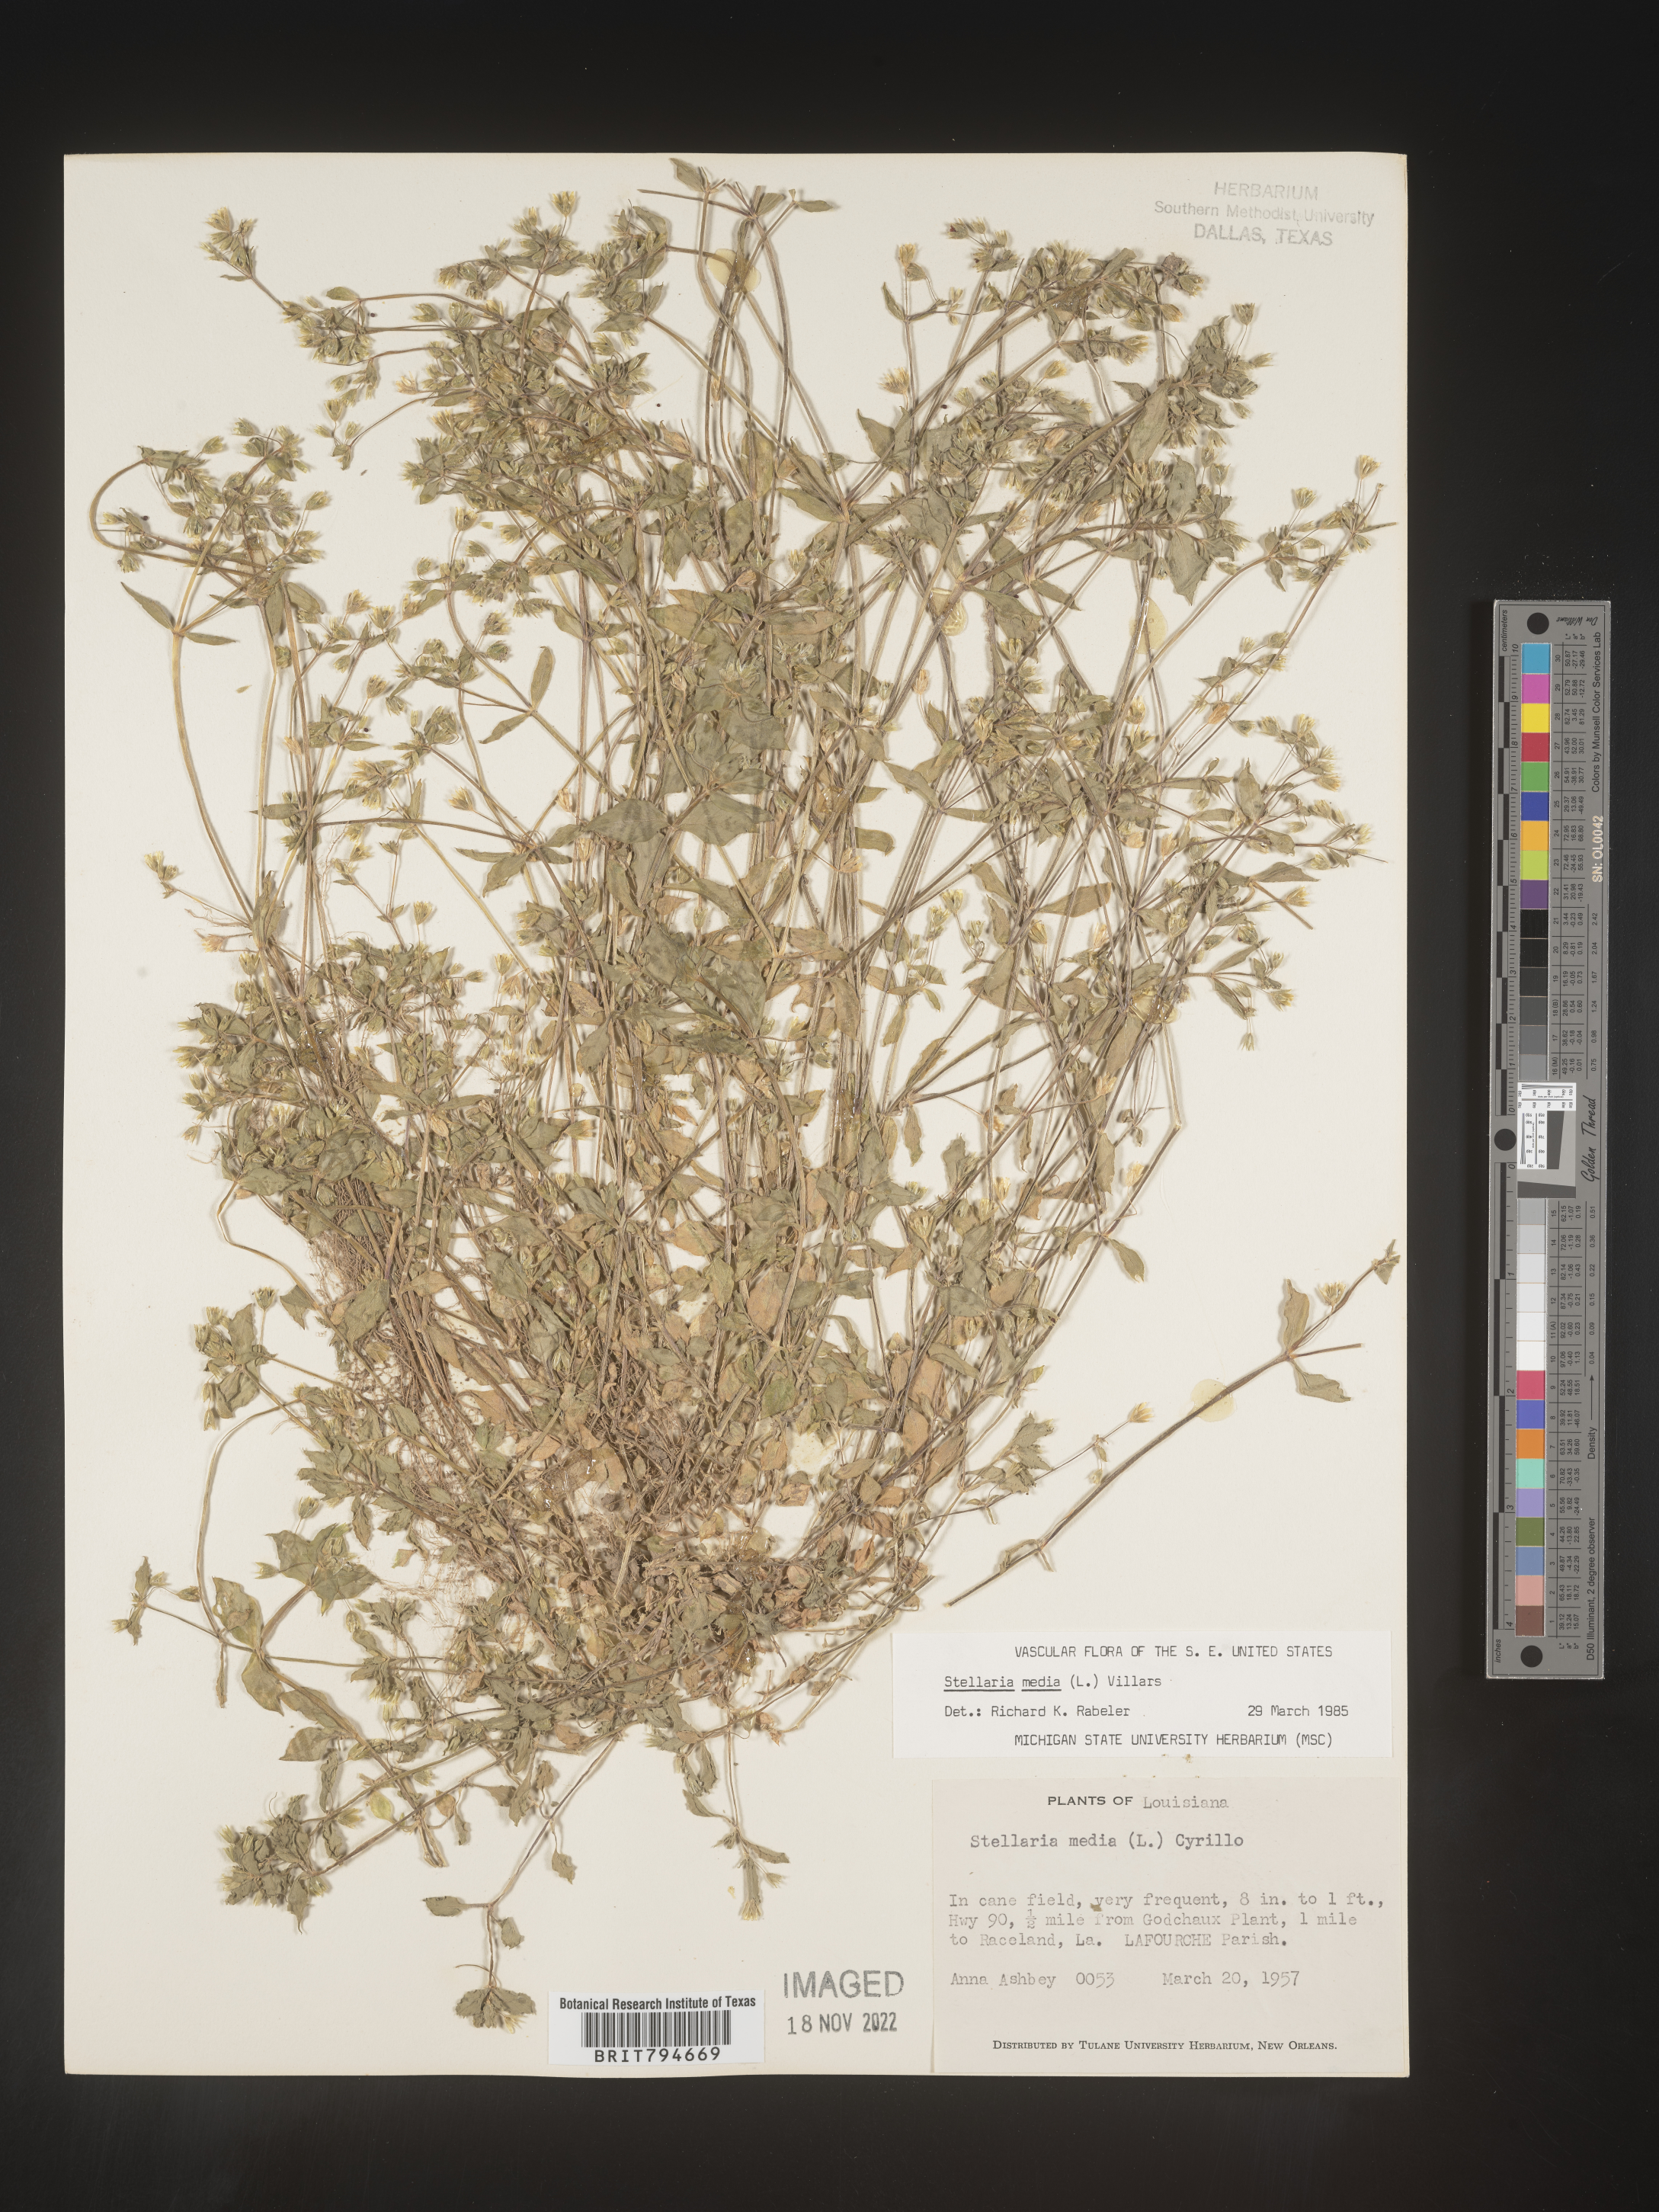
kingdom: Plantae
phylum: Tracheophyta
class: Magnoliopsida
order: Caryophyllales
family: Caryophyllaceae
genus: Stellaria
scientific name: Stellaria media
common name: Common chickweed
